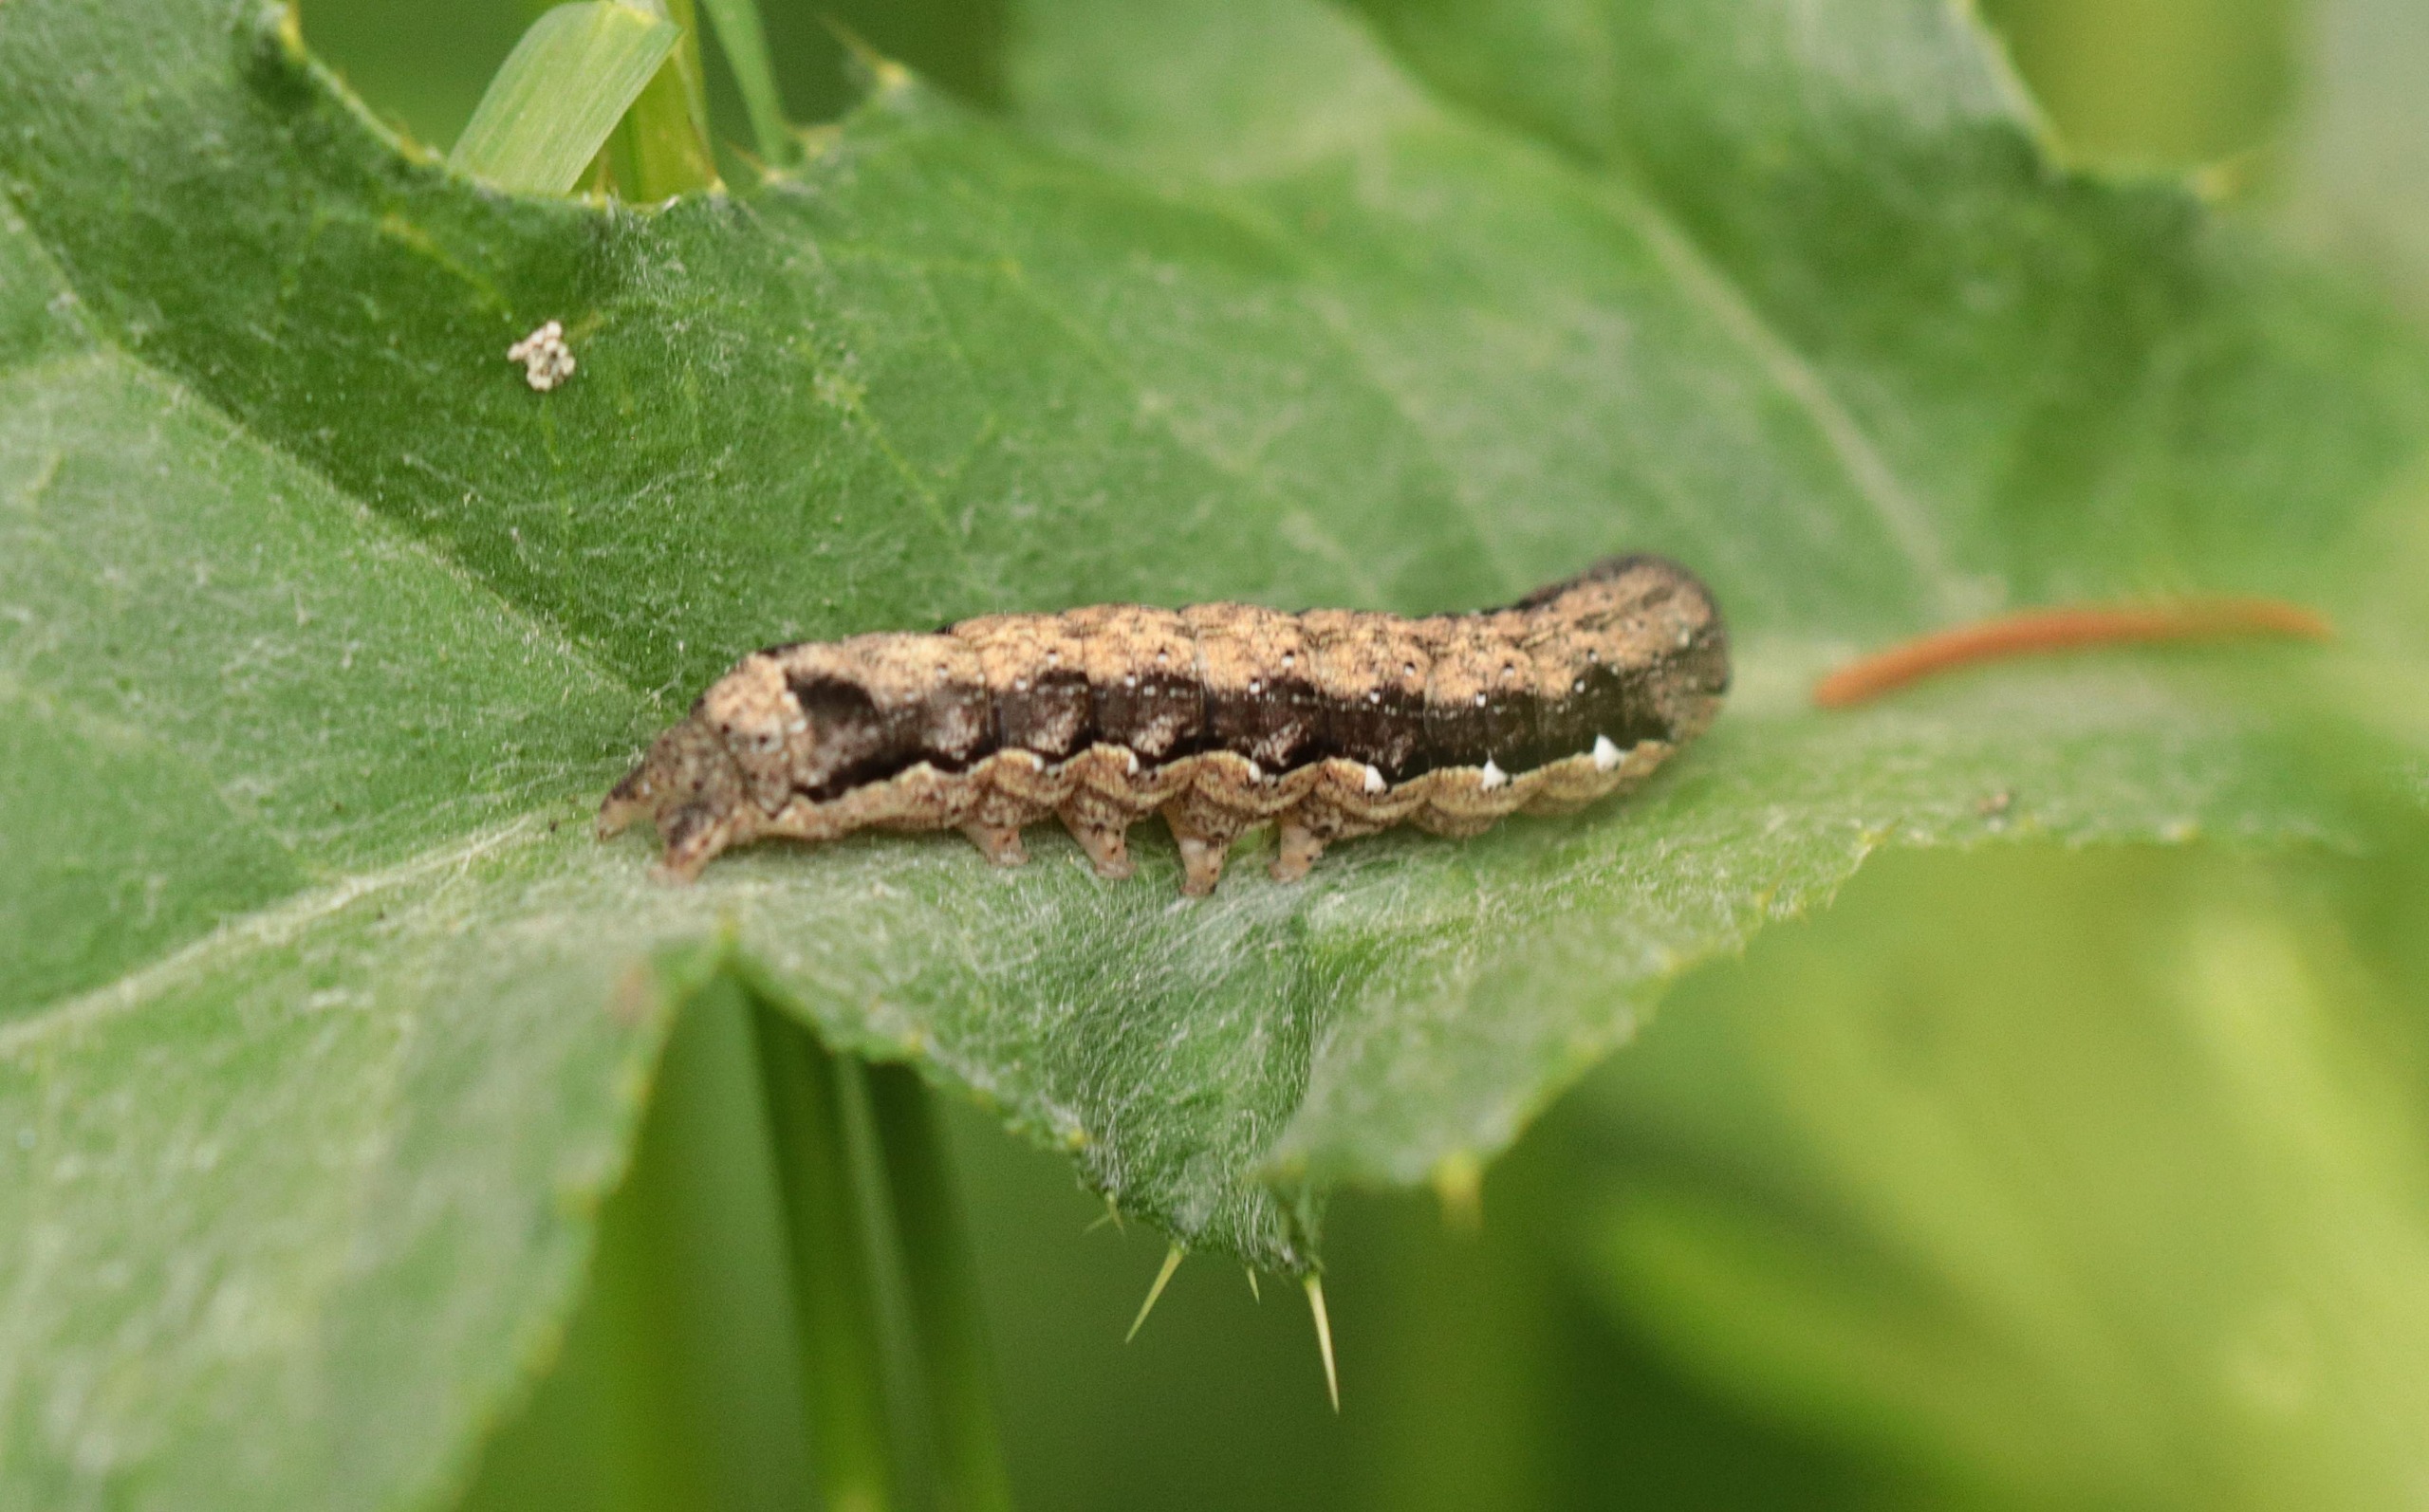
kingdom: Animalia
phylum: Arthropoda
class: Insecta
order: Lepidoptera
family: Noctuidae
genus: Anorthoa
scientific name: Anorthoa munda
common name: Toplet forårsugle
